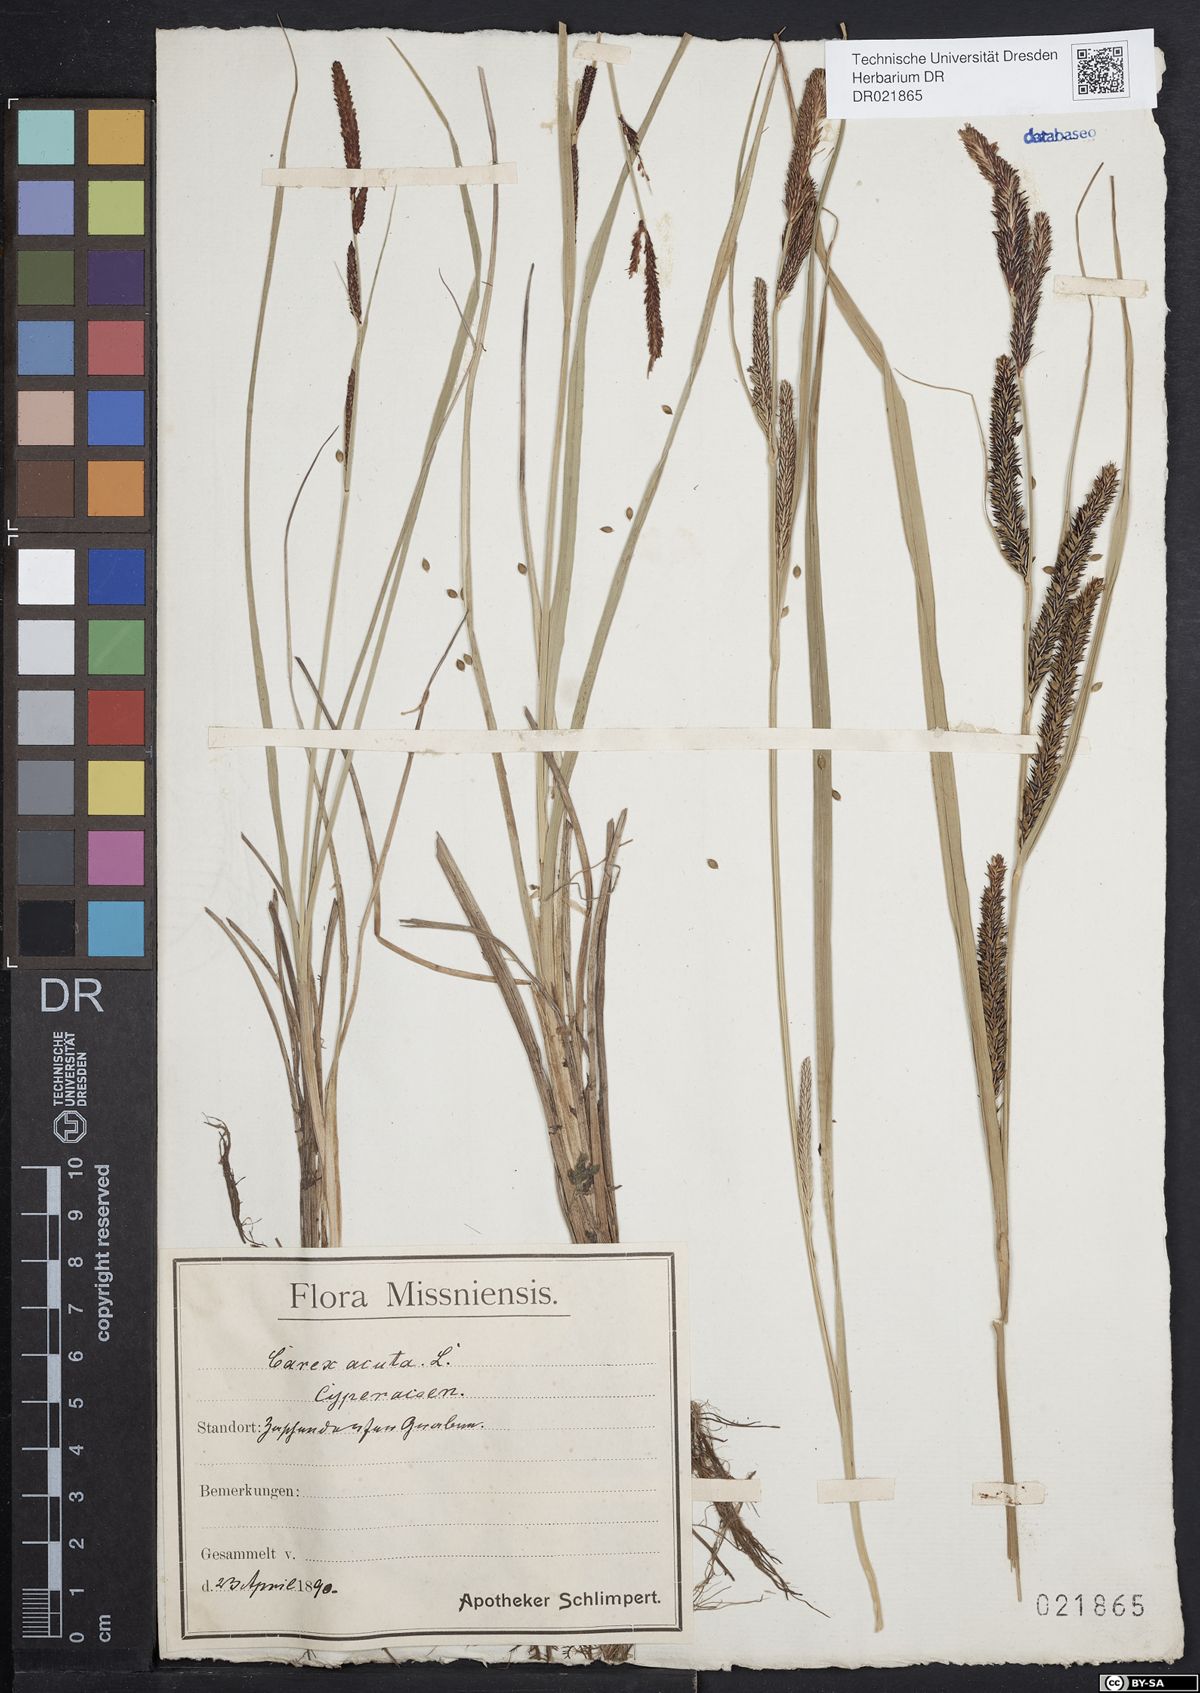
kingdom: Plantae
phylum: Tracheophyta
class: Liliopsida
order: Poales
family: Cyperaceae
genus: Carex
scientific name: Carex acuta
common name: Slender tufted-sedge
